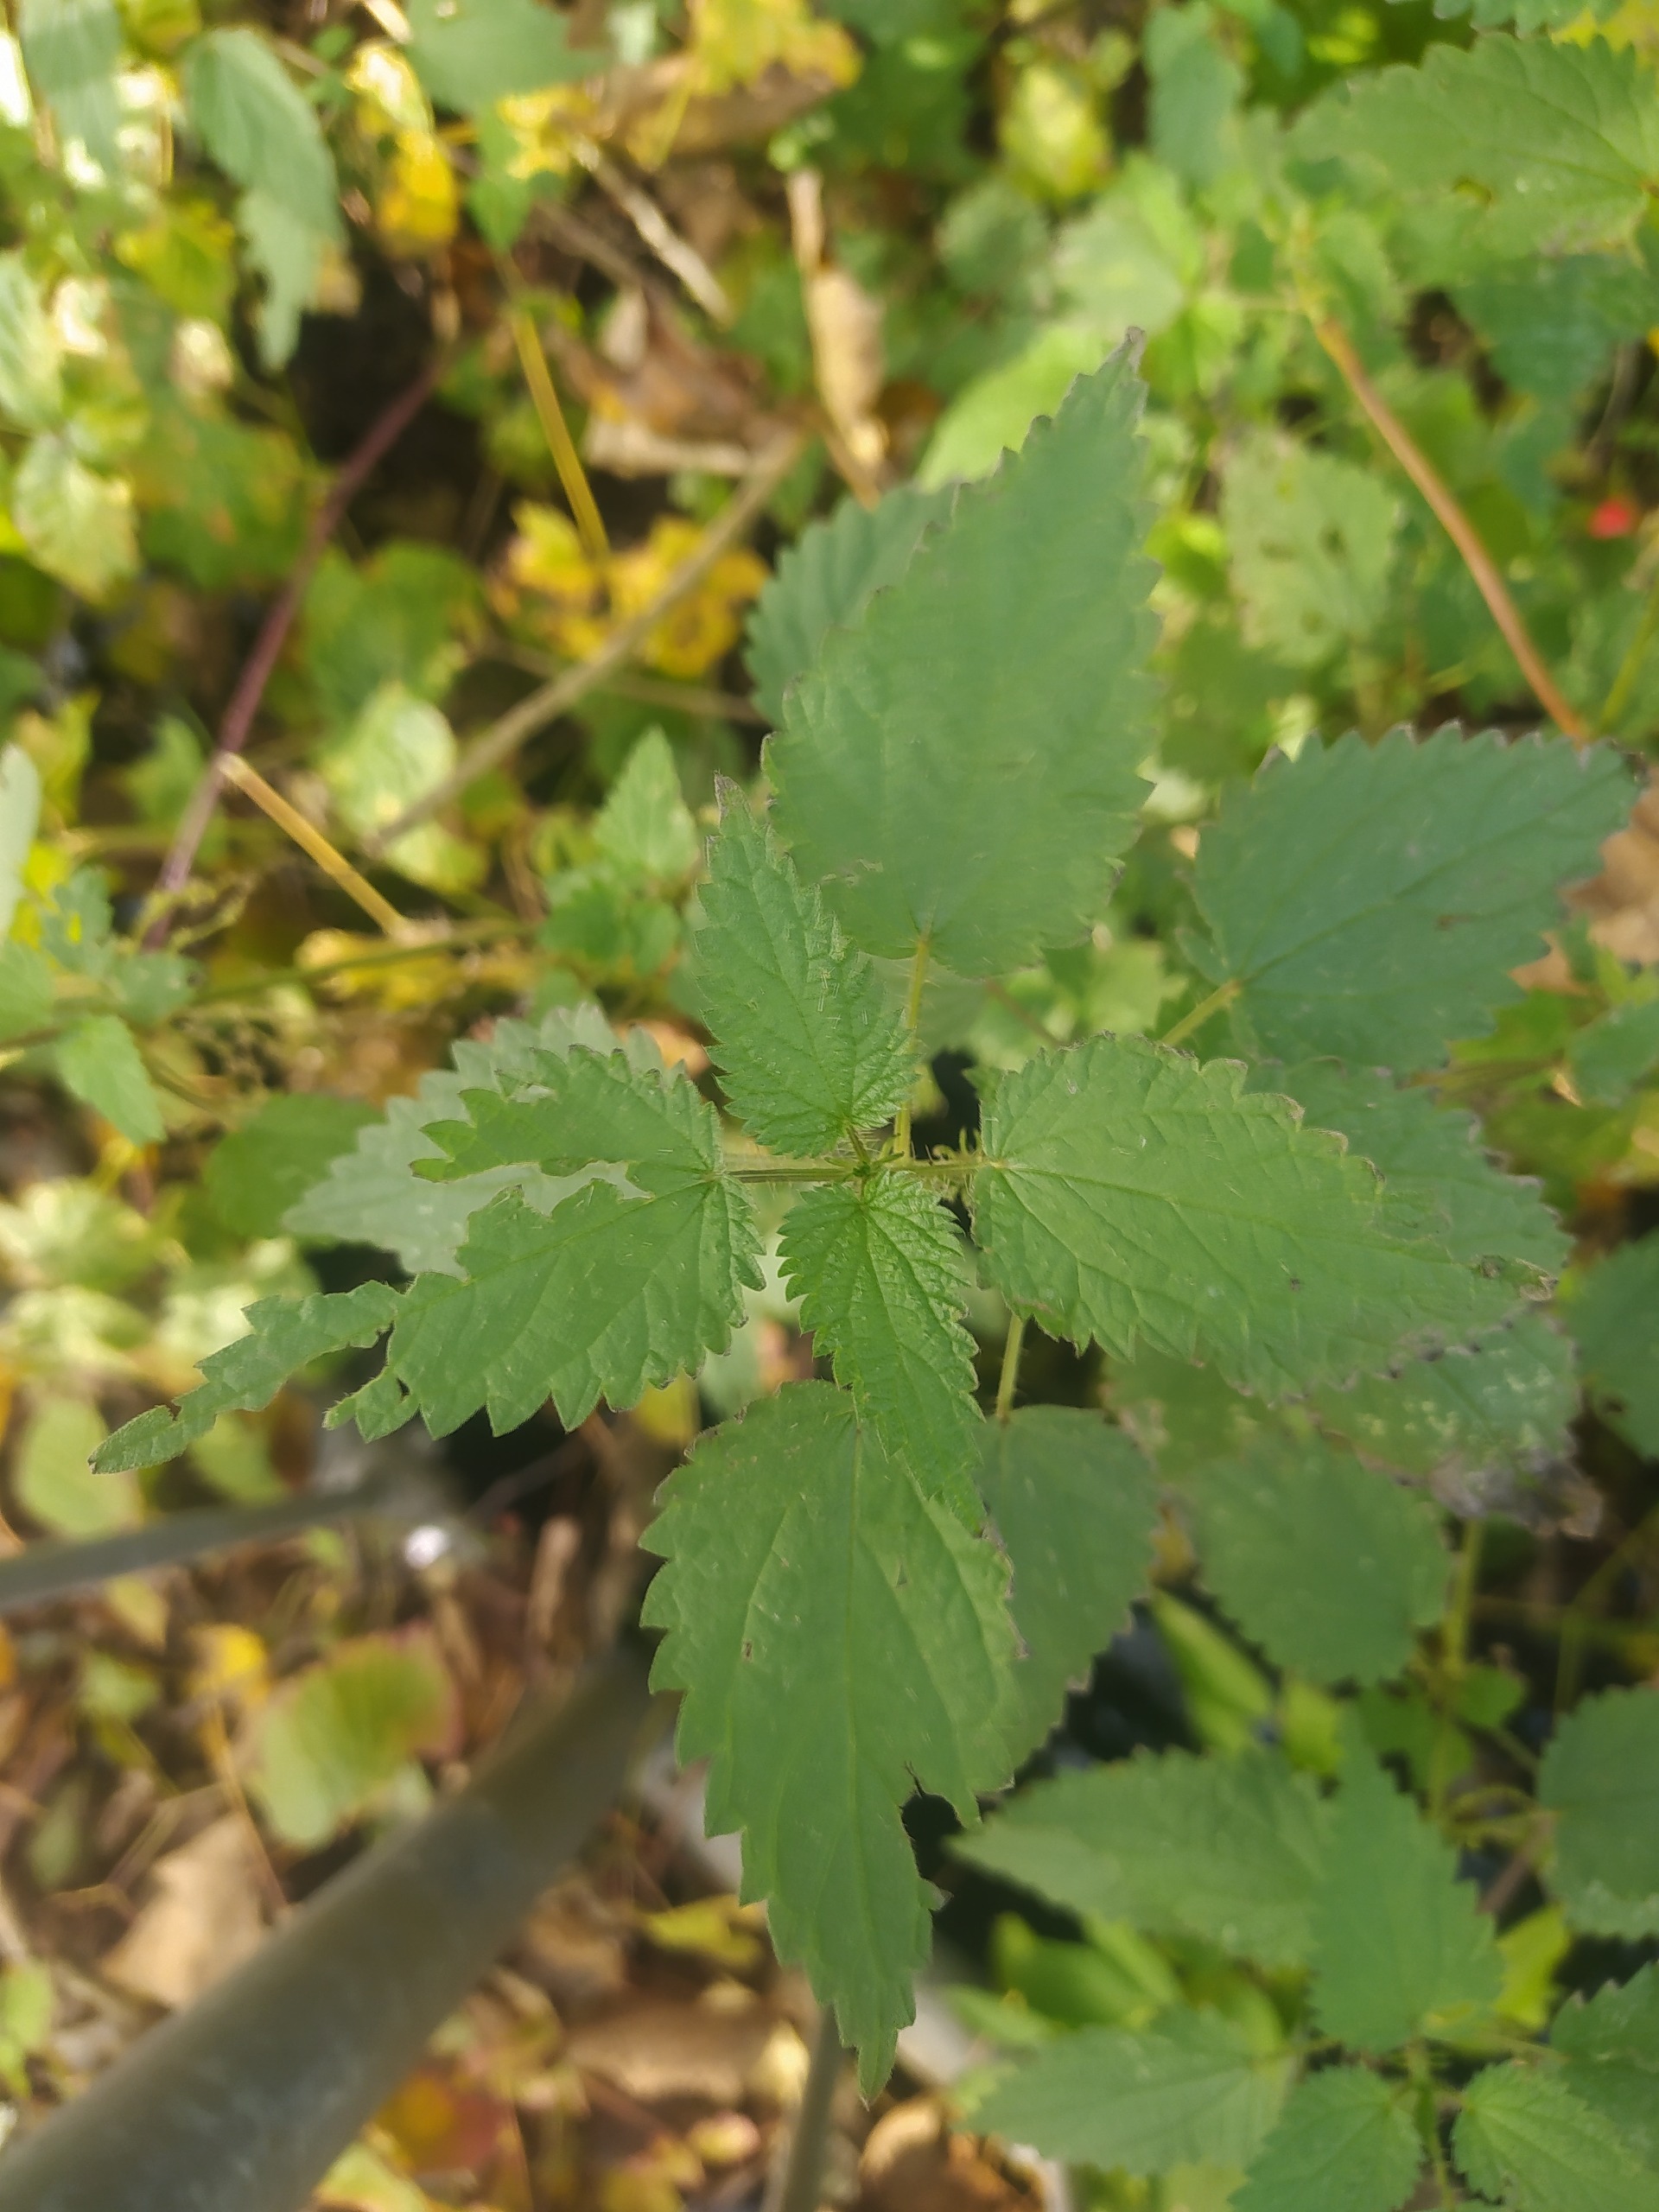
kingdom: Plantae
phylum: Tracheophyta
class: Magnoliopsida
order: Rosales
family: Urticaceae
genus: Urtica
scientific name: Urtica dioica
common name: Stor nælde
